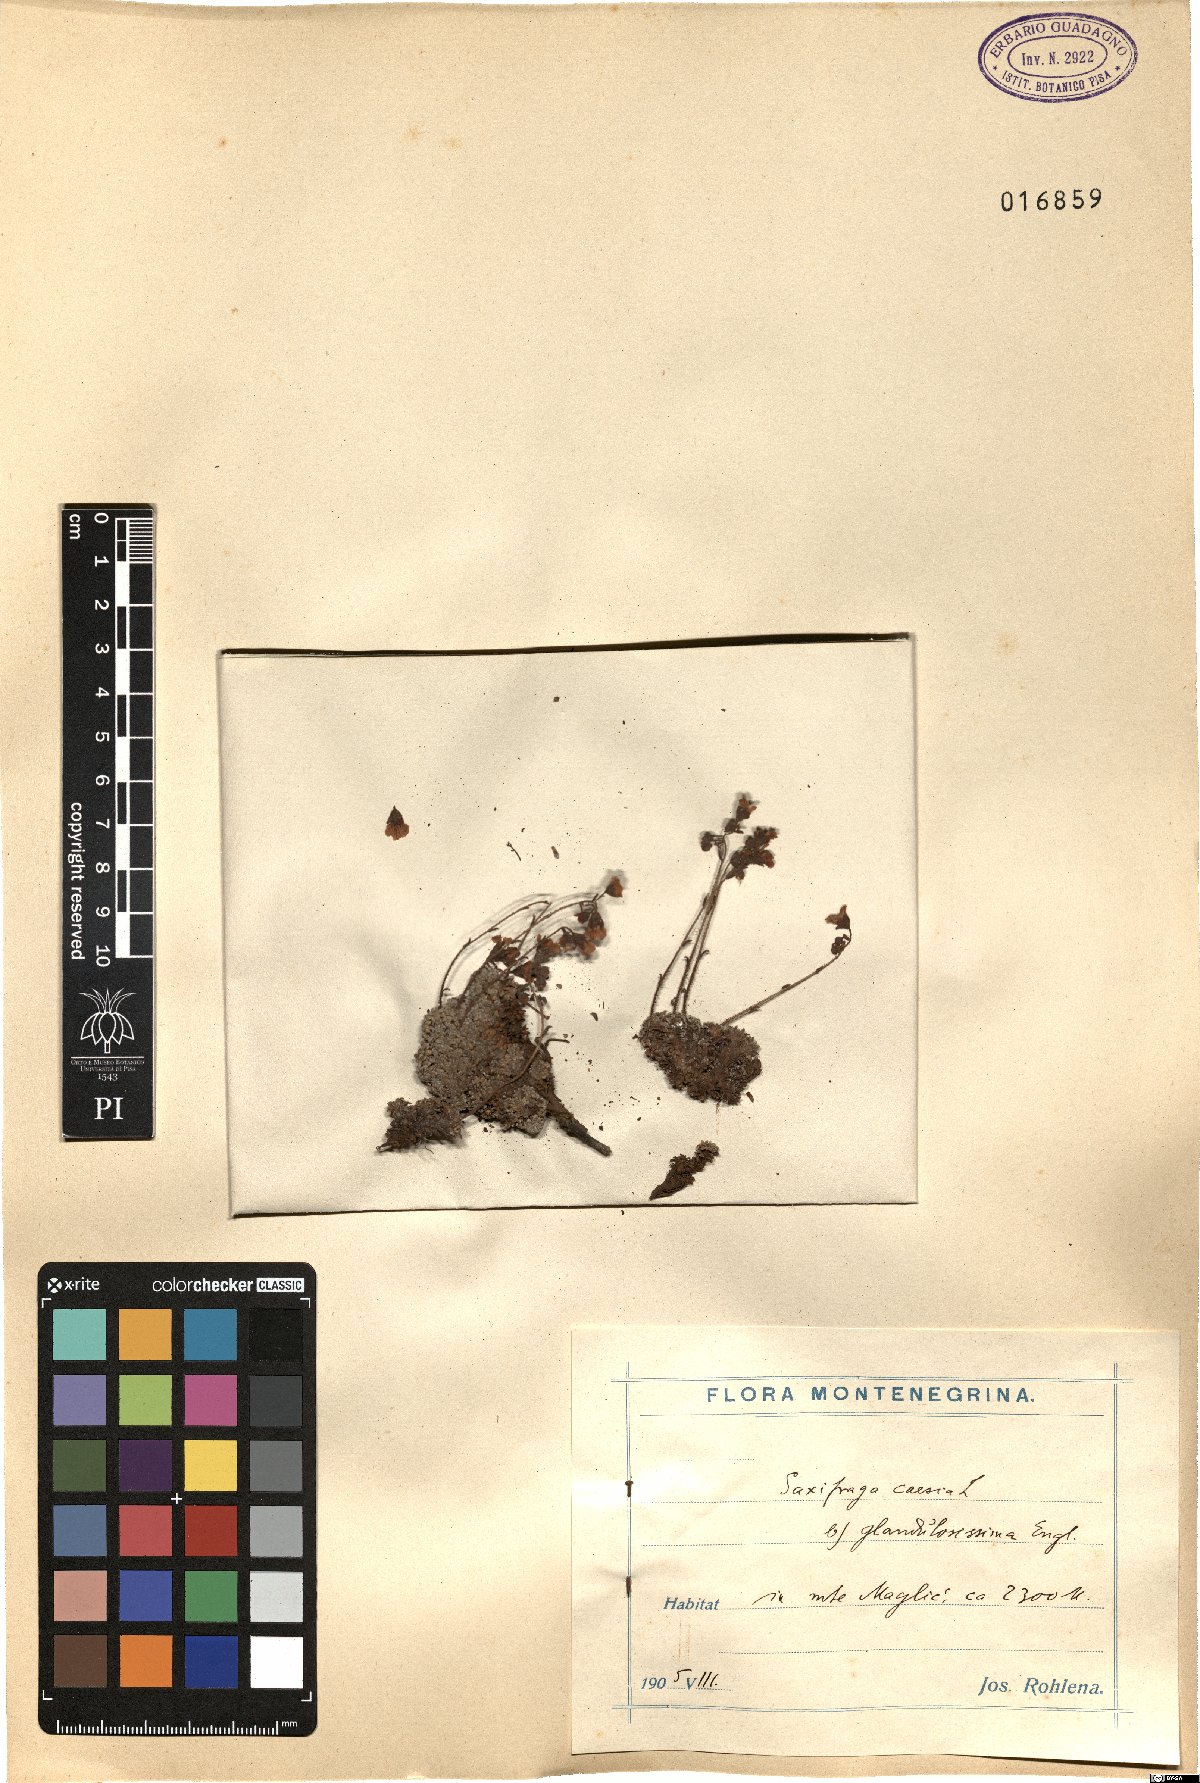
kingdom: Plantae
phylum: Tracheophyta
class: Magnoliopsida
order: Saxifragales
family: Saxifragaceae
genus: Saxifraga
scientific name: Saxifraga caesia
